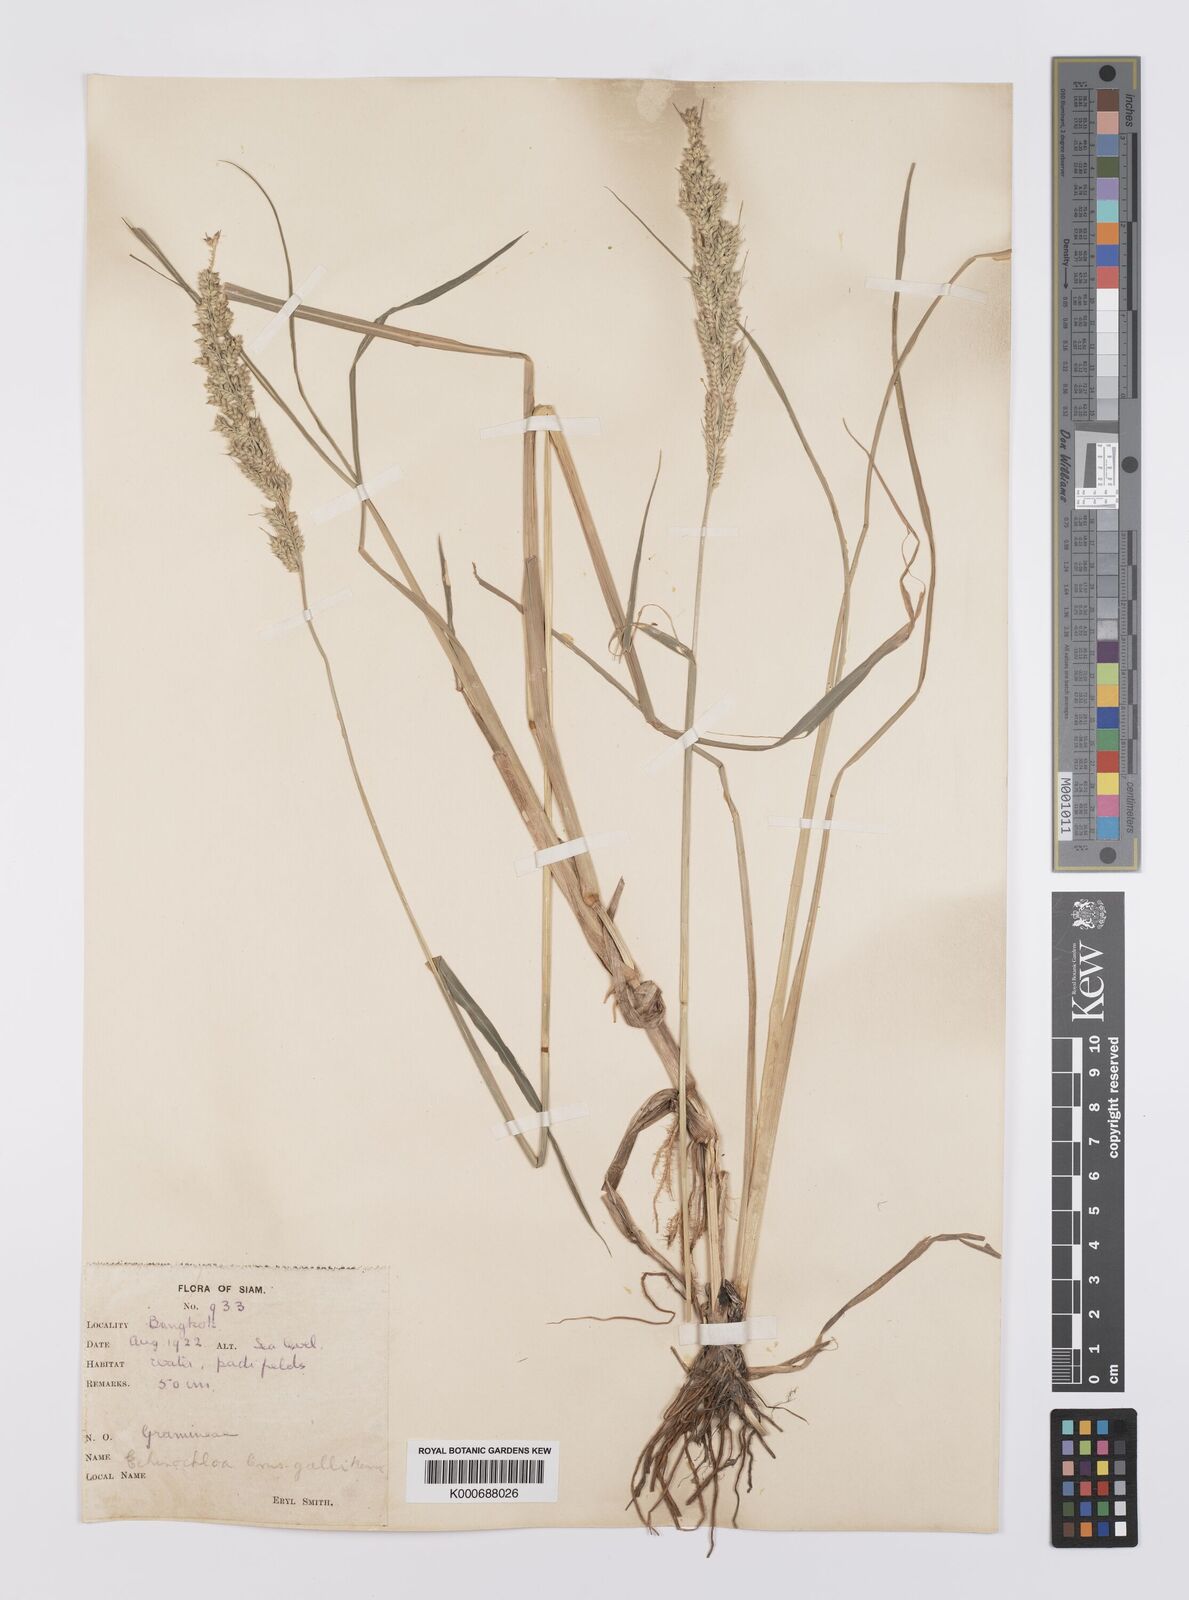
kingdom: Plantae
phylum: Tracheophyta
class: Liliopsida
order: Poales
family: Poaceae
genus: Echinochloa
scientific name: Echinochloa crus-galli
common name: Cockspur
